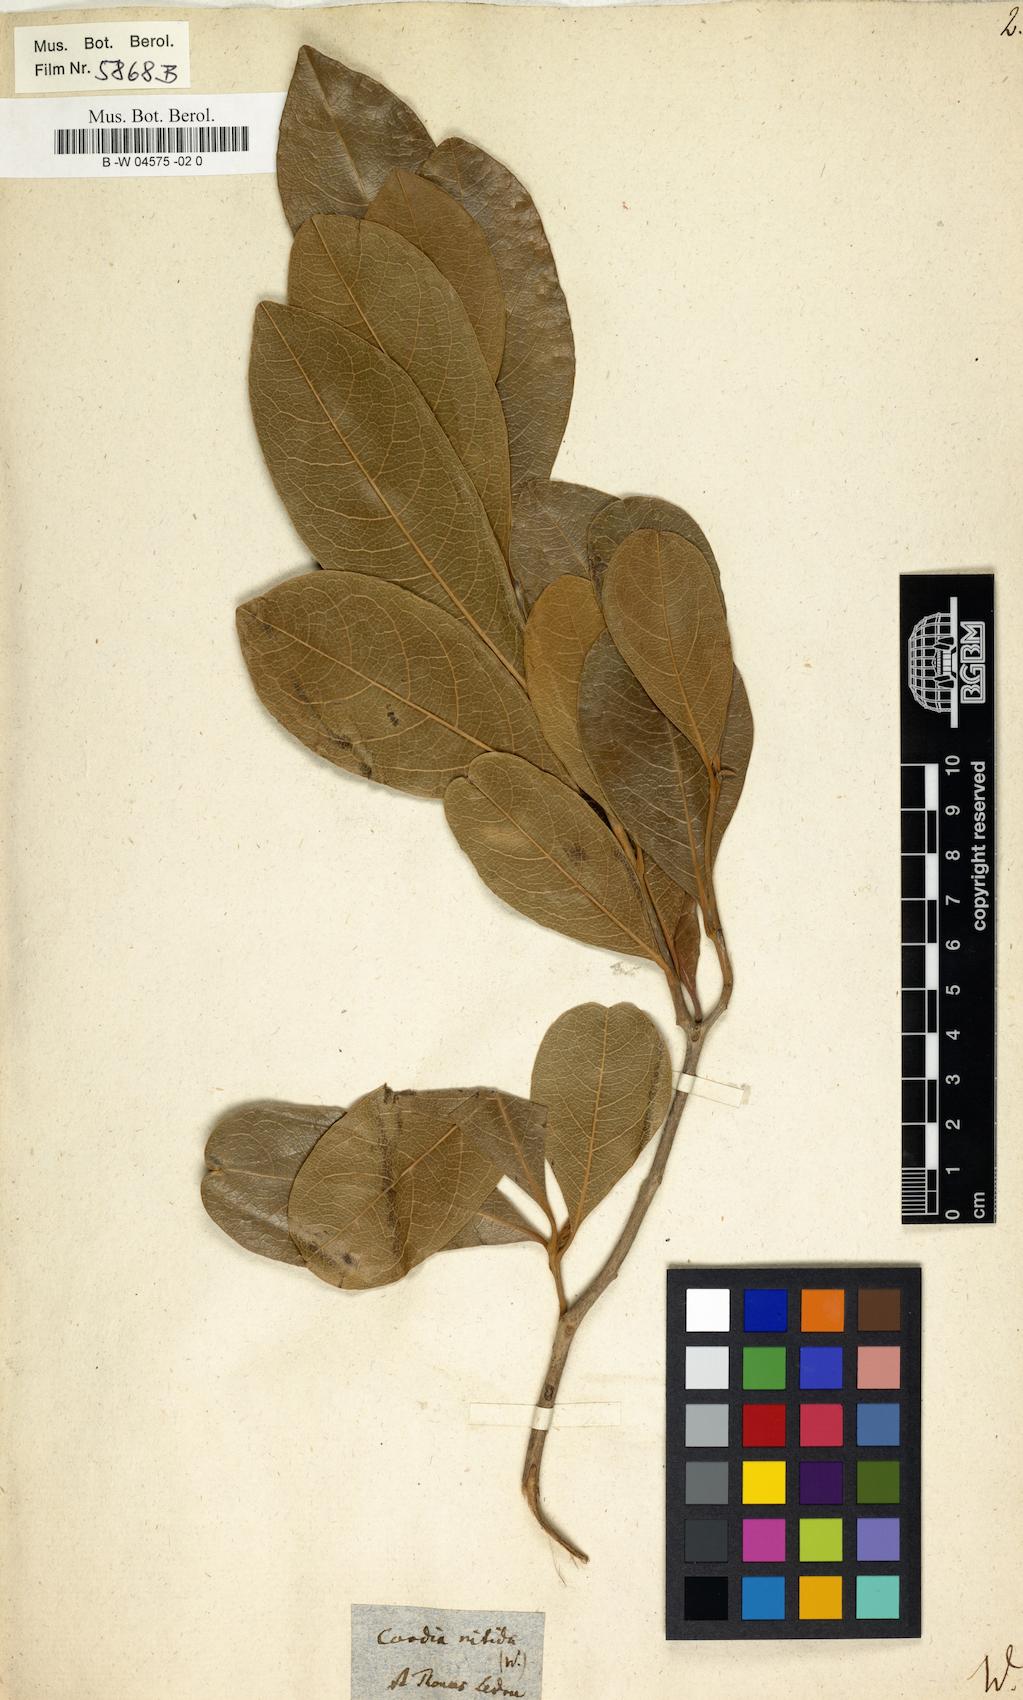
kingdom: Plantae
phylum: Tracheophyta
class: Magnoliopsida
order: Boraginales
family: Cordiaceae
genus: Cordia
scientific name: Cordia laevigata
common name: Clam cherry
